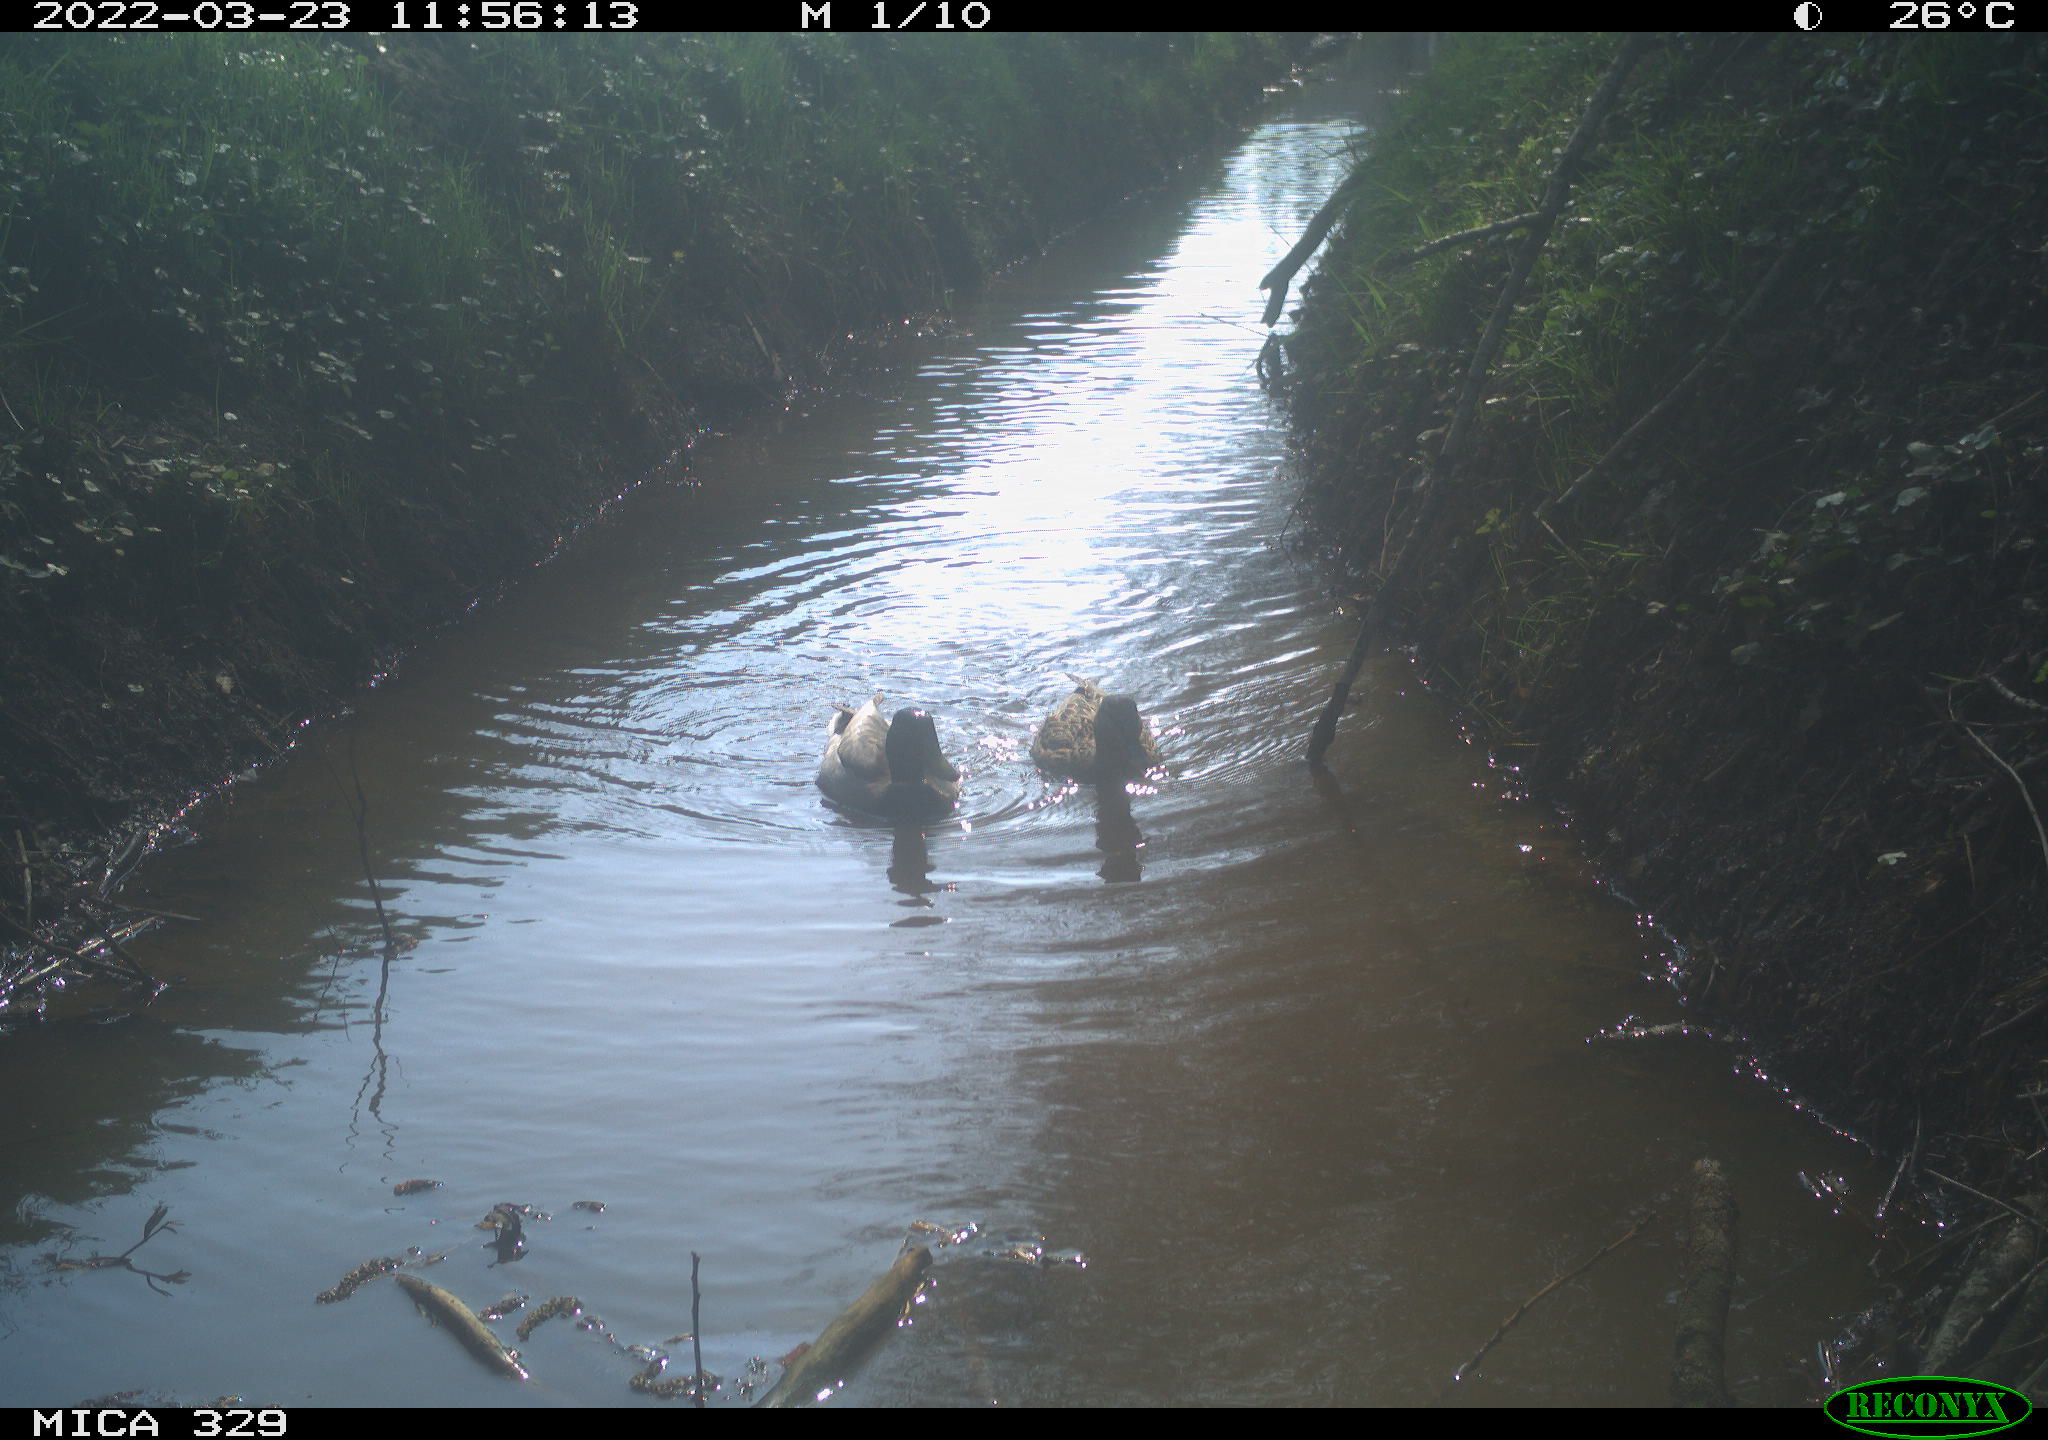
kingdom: Animalia
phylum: Chordata
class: Aves
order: Anseriformes
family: Anatidae
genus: Anas
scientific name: Anas platyrhynchos
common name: Mallard
